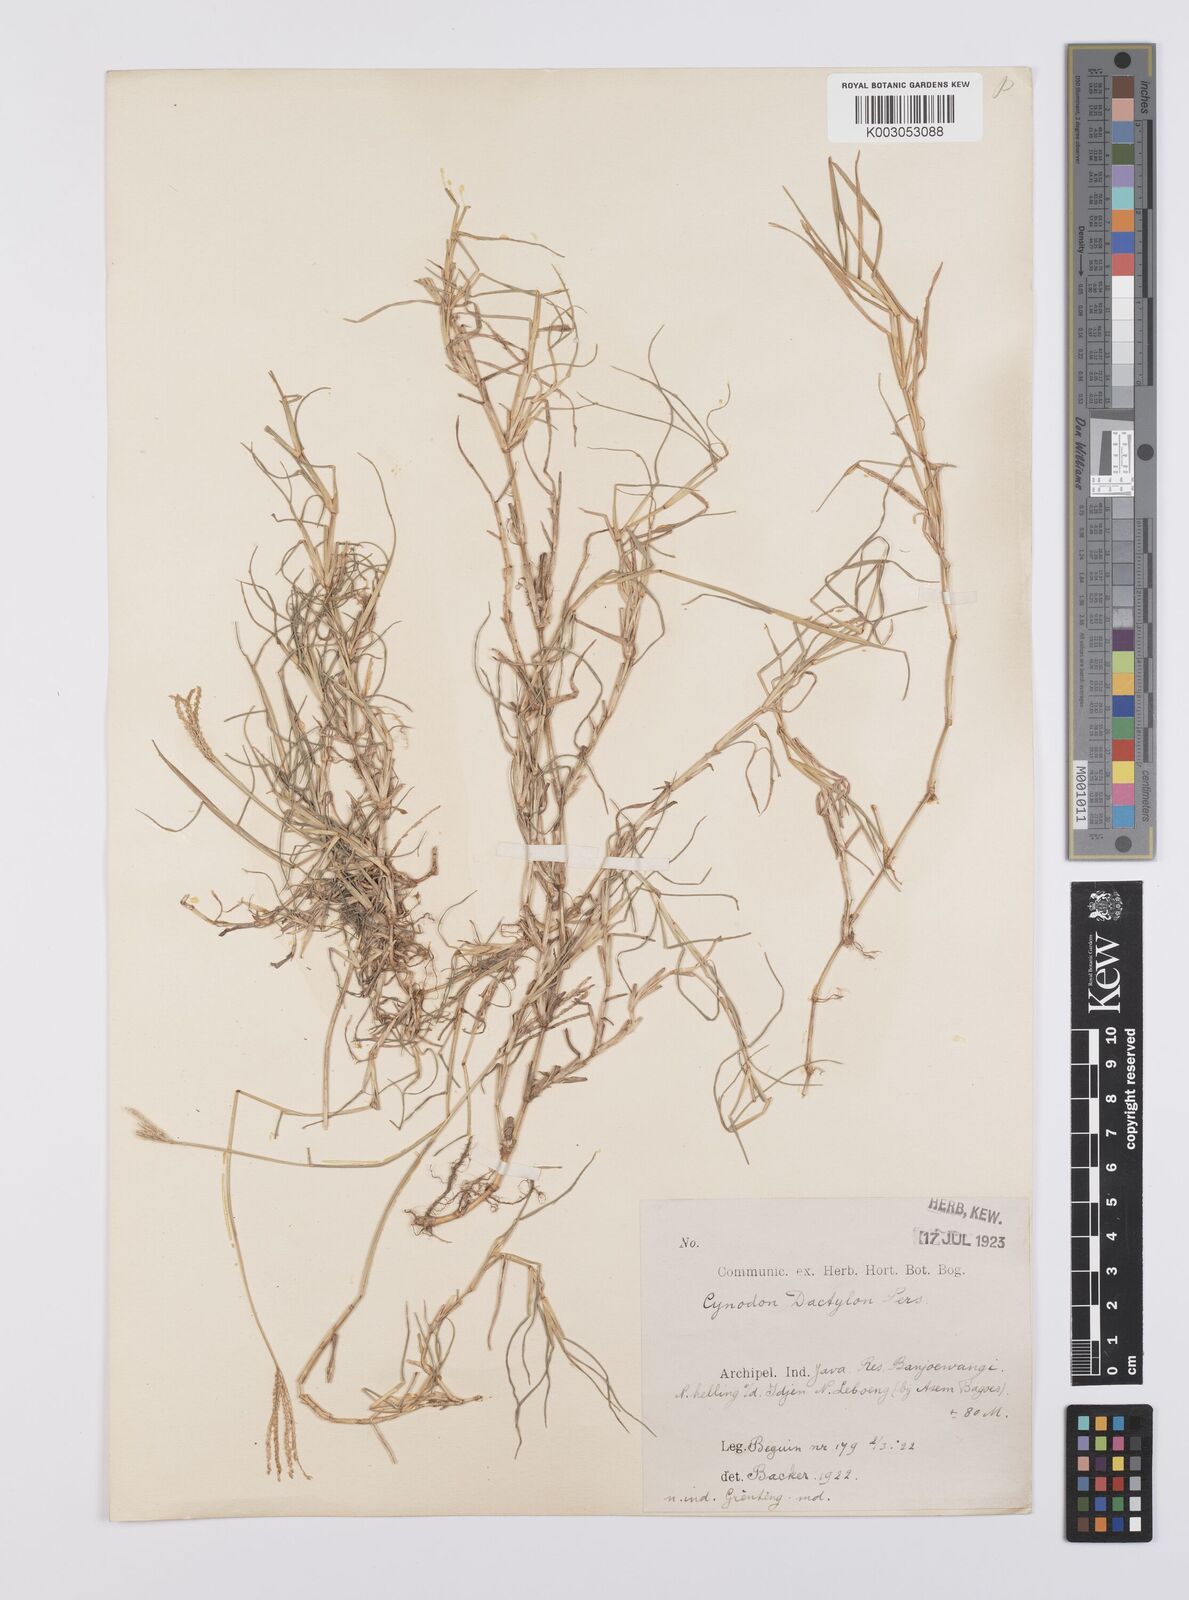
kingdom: Plantae
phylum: Tracheophyta
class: Liliopsida
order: Poales
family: Poaceae
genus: Cynodon
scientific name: Cynodon dactylon
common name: Bermuda grass
